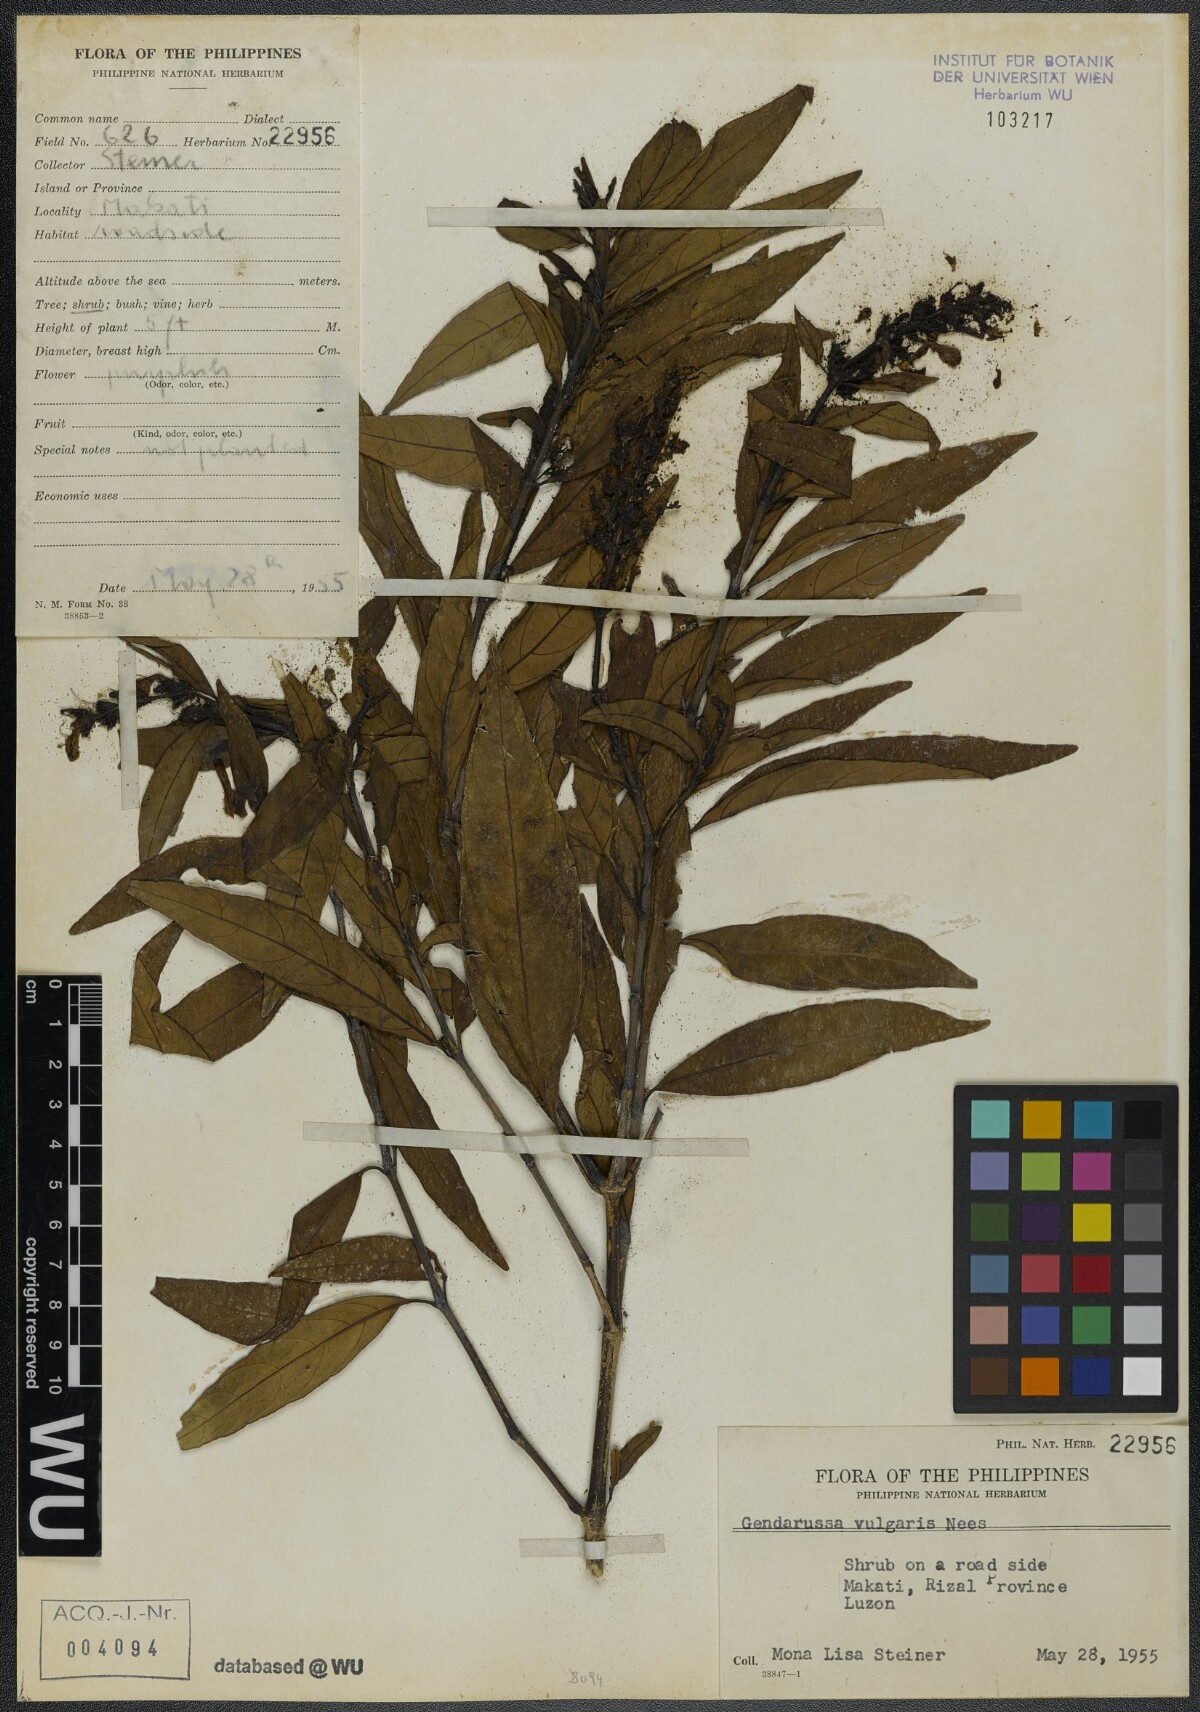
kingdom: Plantae
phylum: Tracheophyta
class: Magnoliopsida
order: Lamiales
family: Acanthaceae
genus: Justicia
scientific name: Justicia gendarussa
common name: Warer willow
